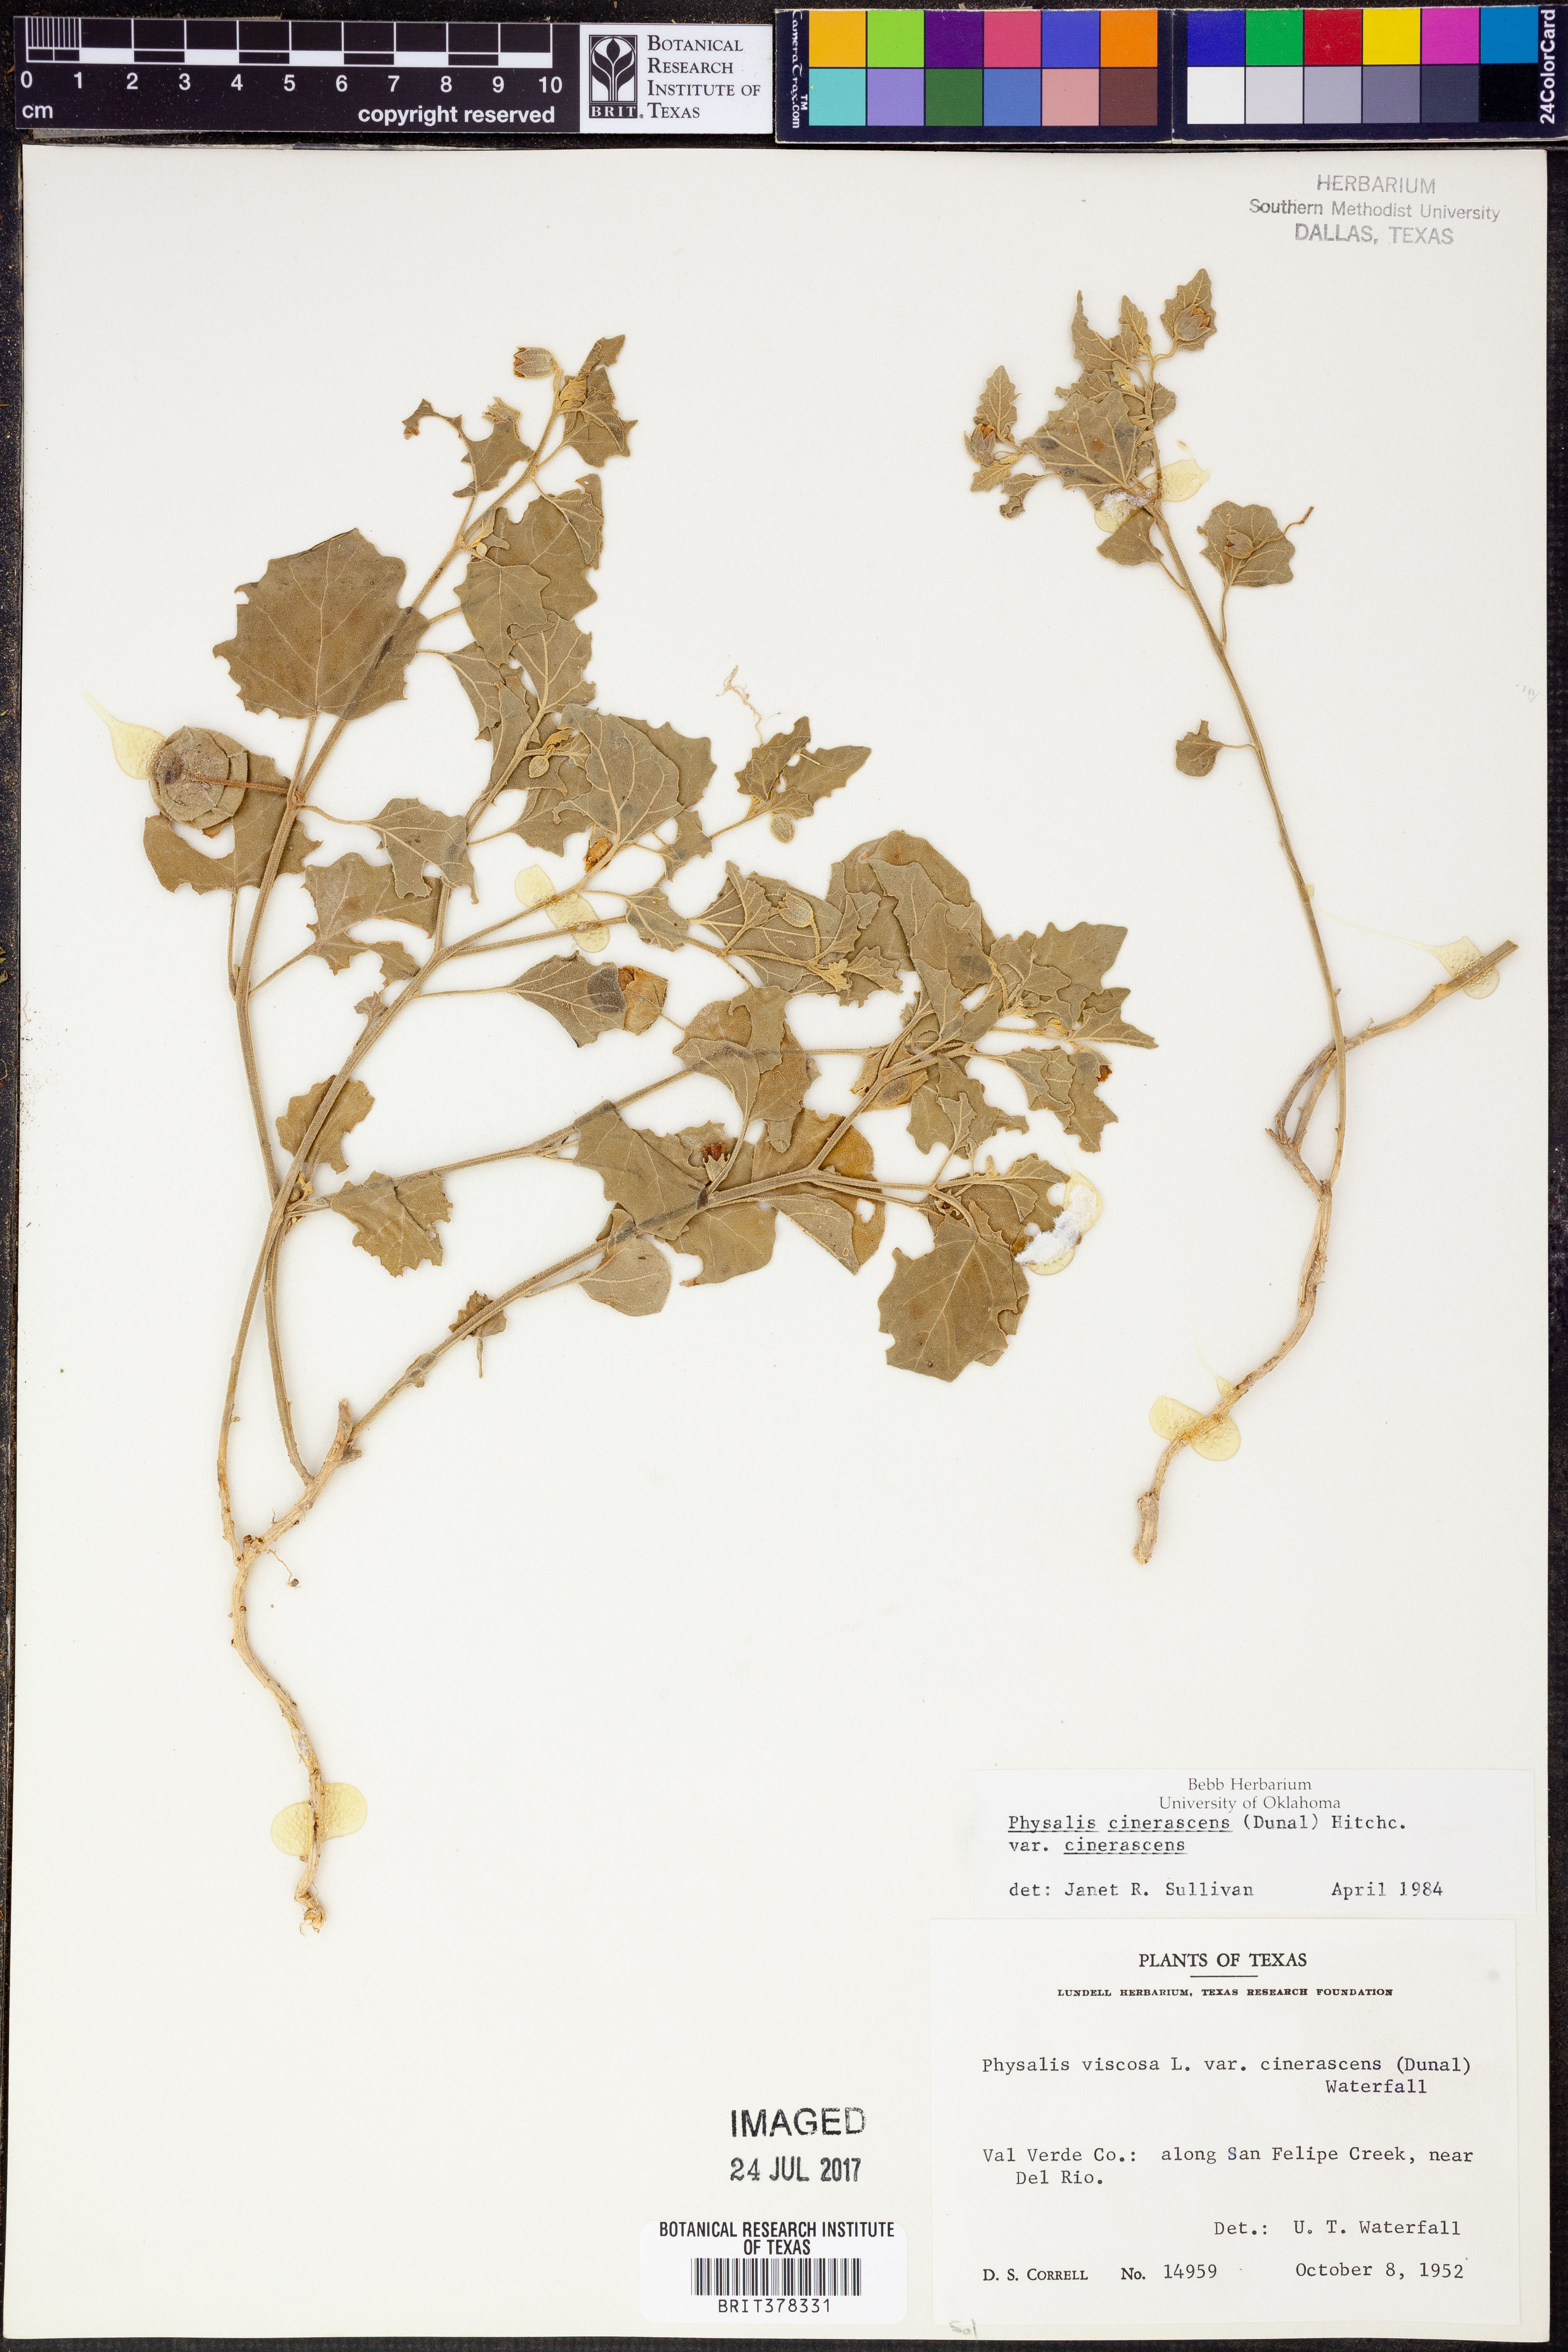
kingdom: Plantae
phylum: Tracheophyta
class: Magnoliopsida
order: Solanales
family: Solanaceae
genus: Physalis
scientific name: Physalis cinerascens
